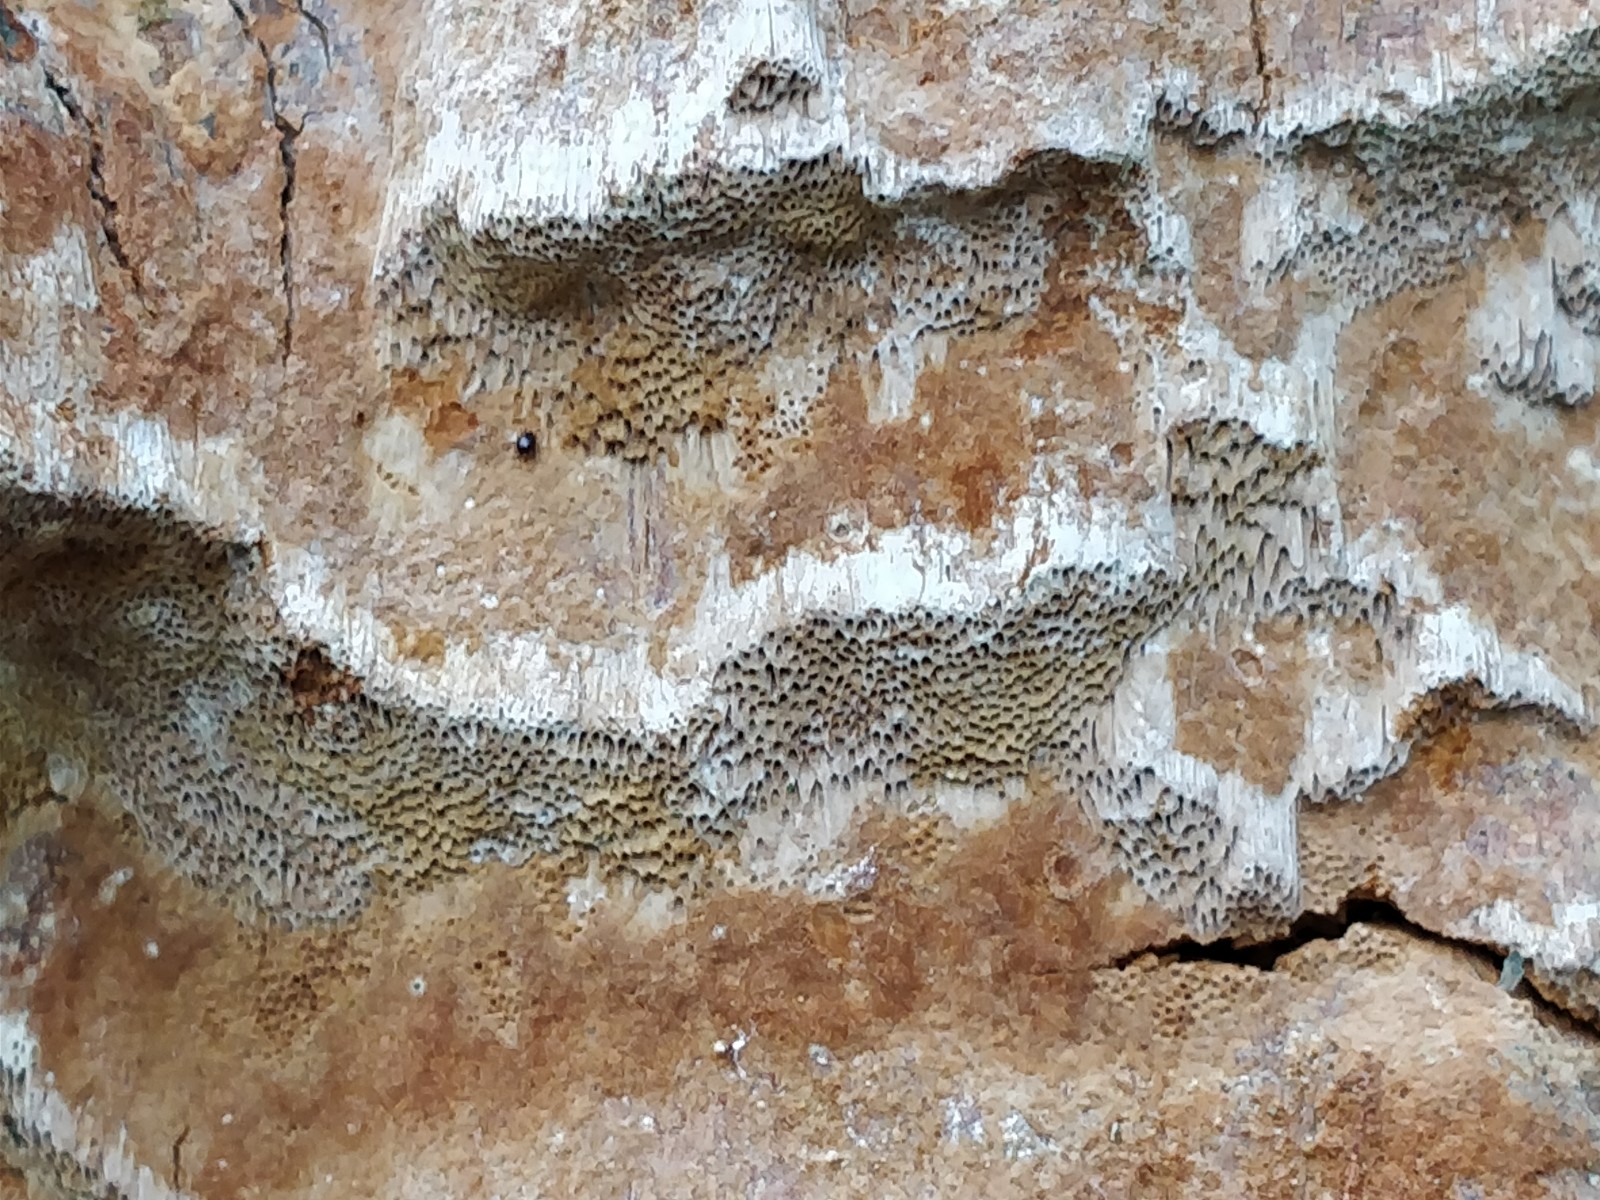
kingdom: Fungi
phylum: Basidiomycota
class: Agaricomycetes
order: Hymenochaetales
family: Hymenochaetaceae
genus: Fuscoporia
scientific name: Fuscoporia ferrea
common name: skorpe-ildporesvamp
